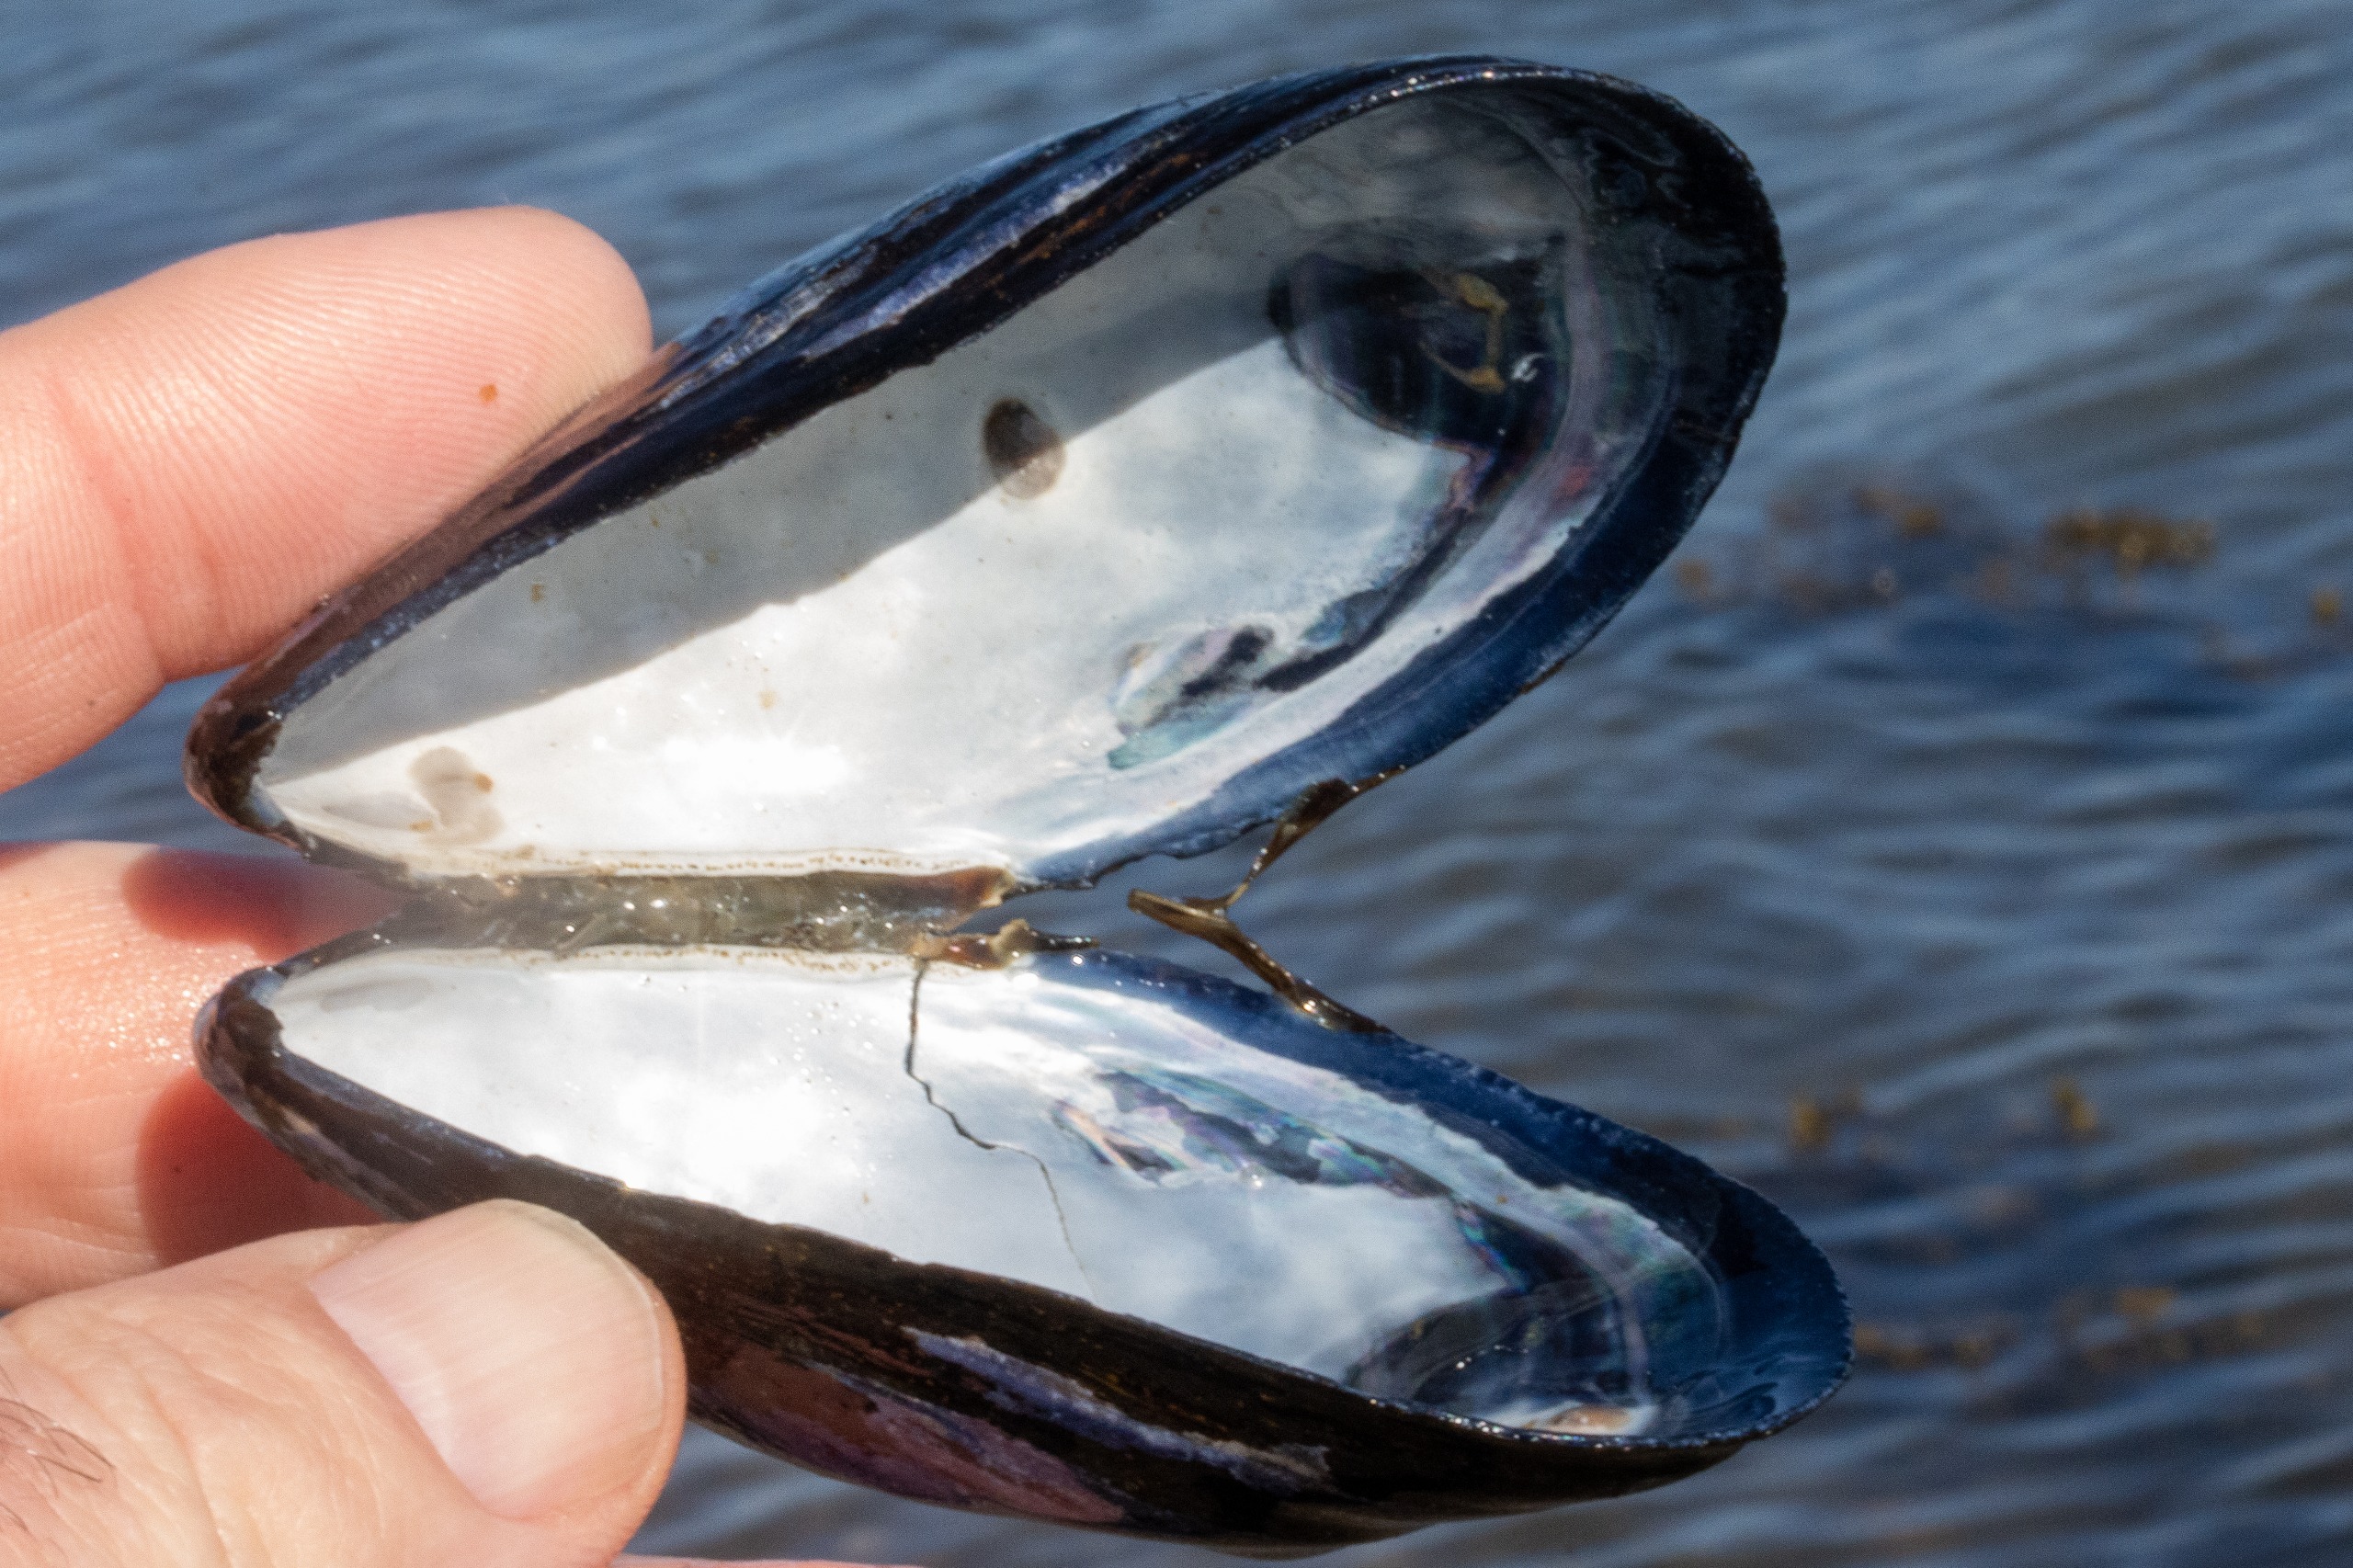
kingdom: Animalia
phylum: Mollusca
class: Bivalvia
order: Mytilida
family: Mytilidae
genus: Mytilus
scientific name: Mytilus edulis
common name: Blåmusling
